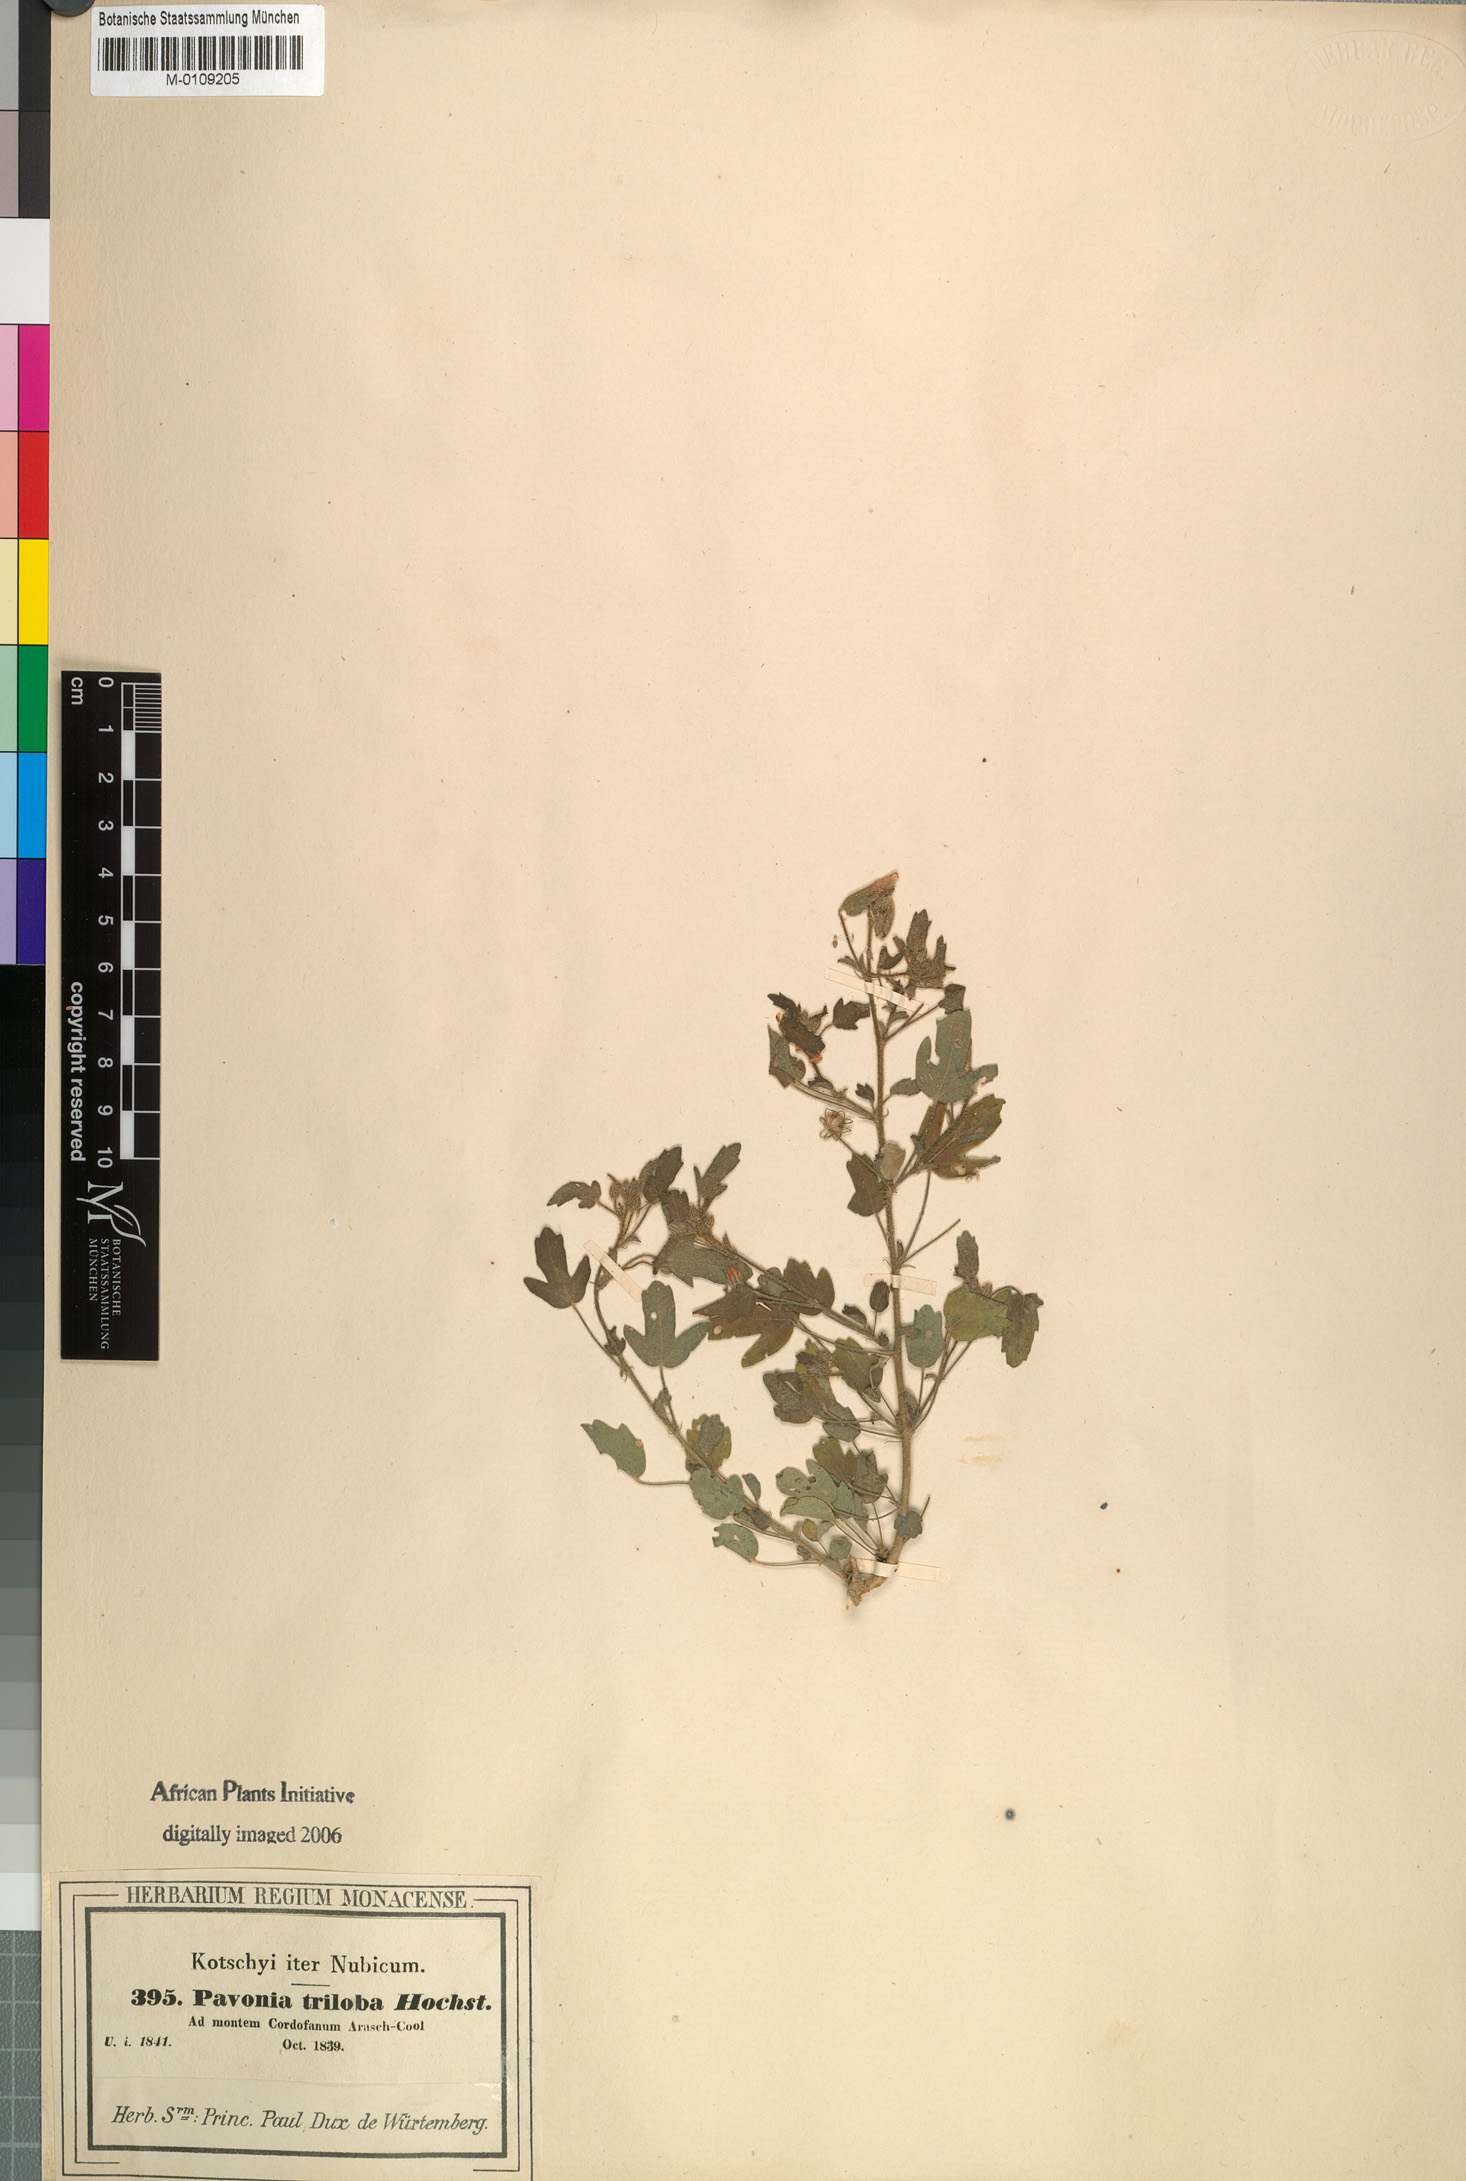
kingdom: Plantae
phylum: Tracheophyta
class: Magnoliopsida
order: Malvales
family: Malvaceae
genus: Pavonia
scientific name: Pavonia triloba
